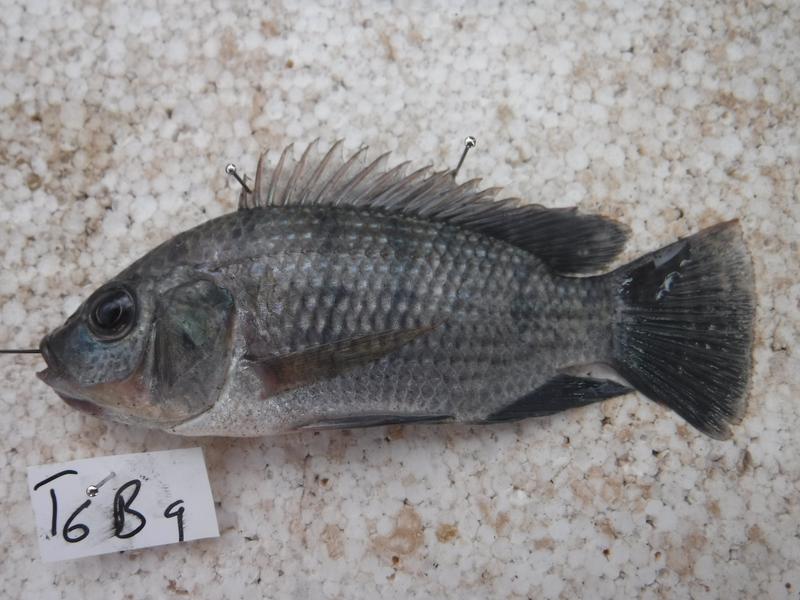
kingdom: Animalia
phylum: Chordata
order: Perciformes
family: Cichlidae
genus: Oreochromis
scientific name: Oreochromis urolepis
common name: Wami tilapia
